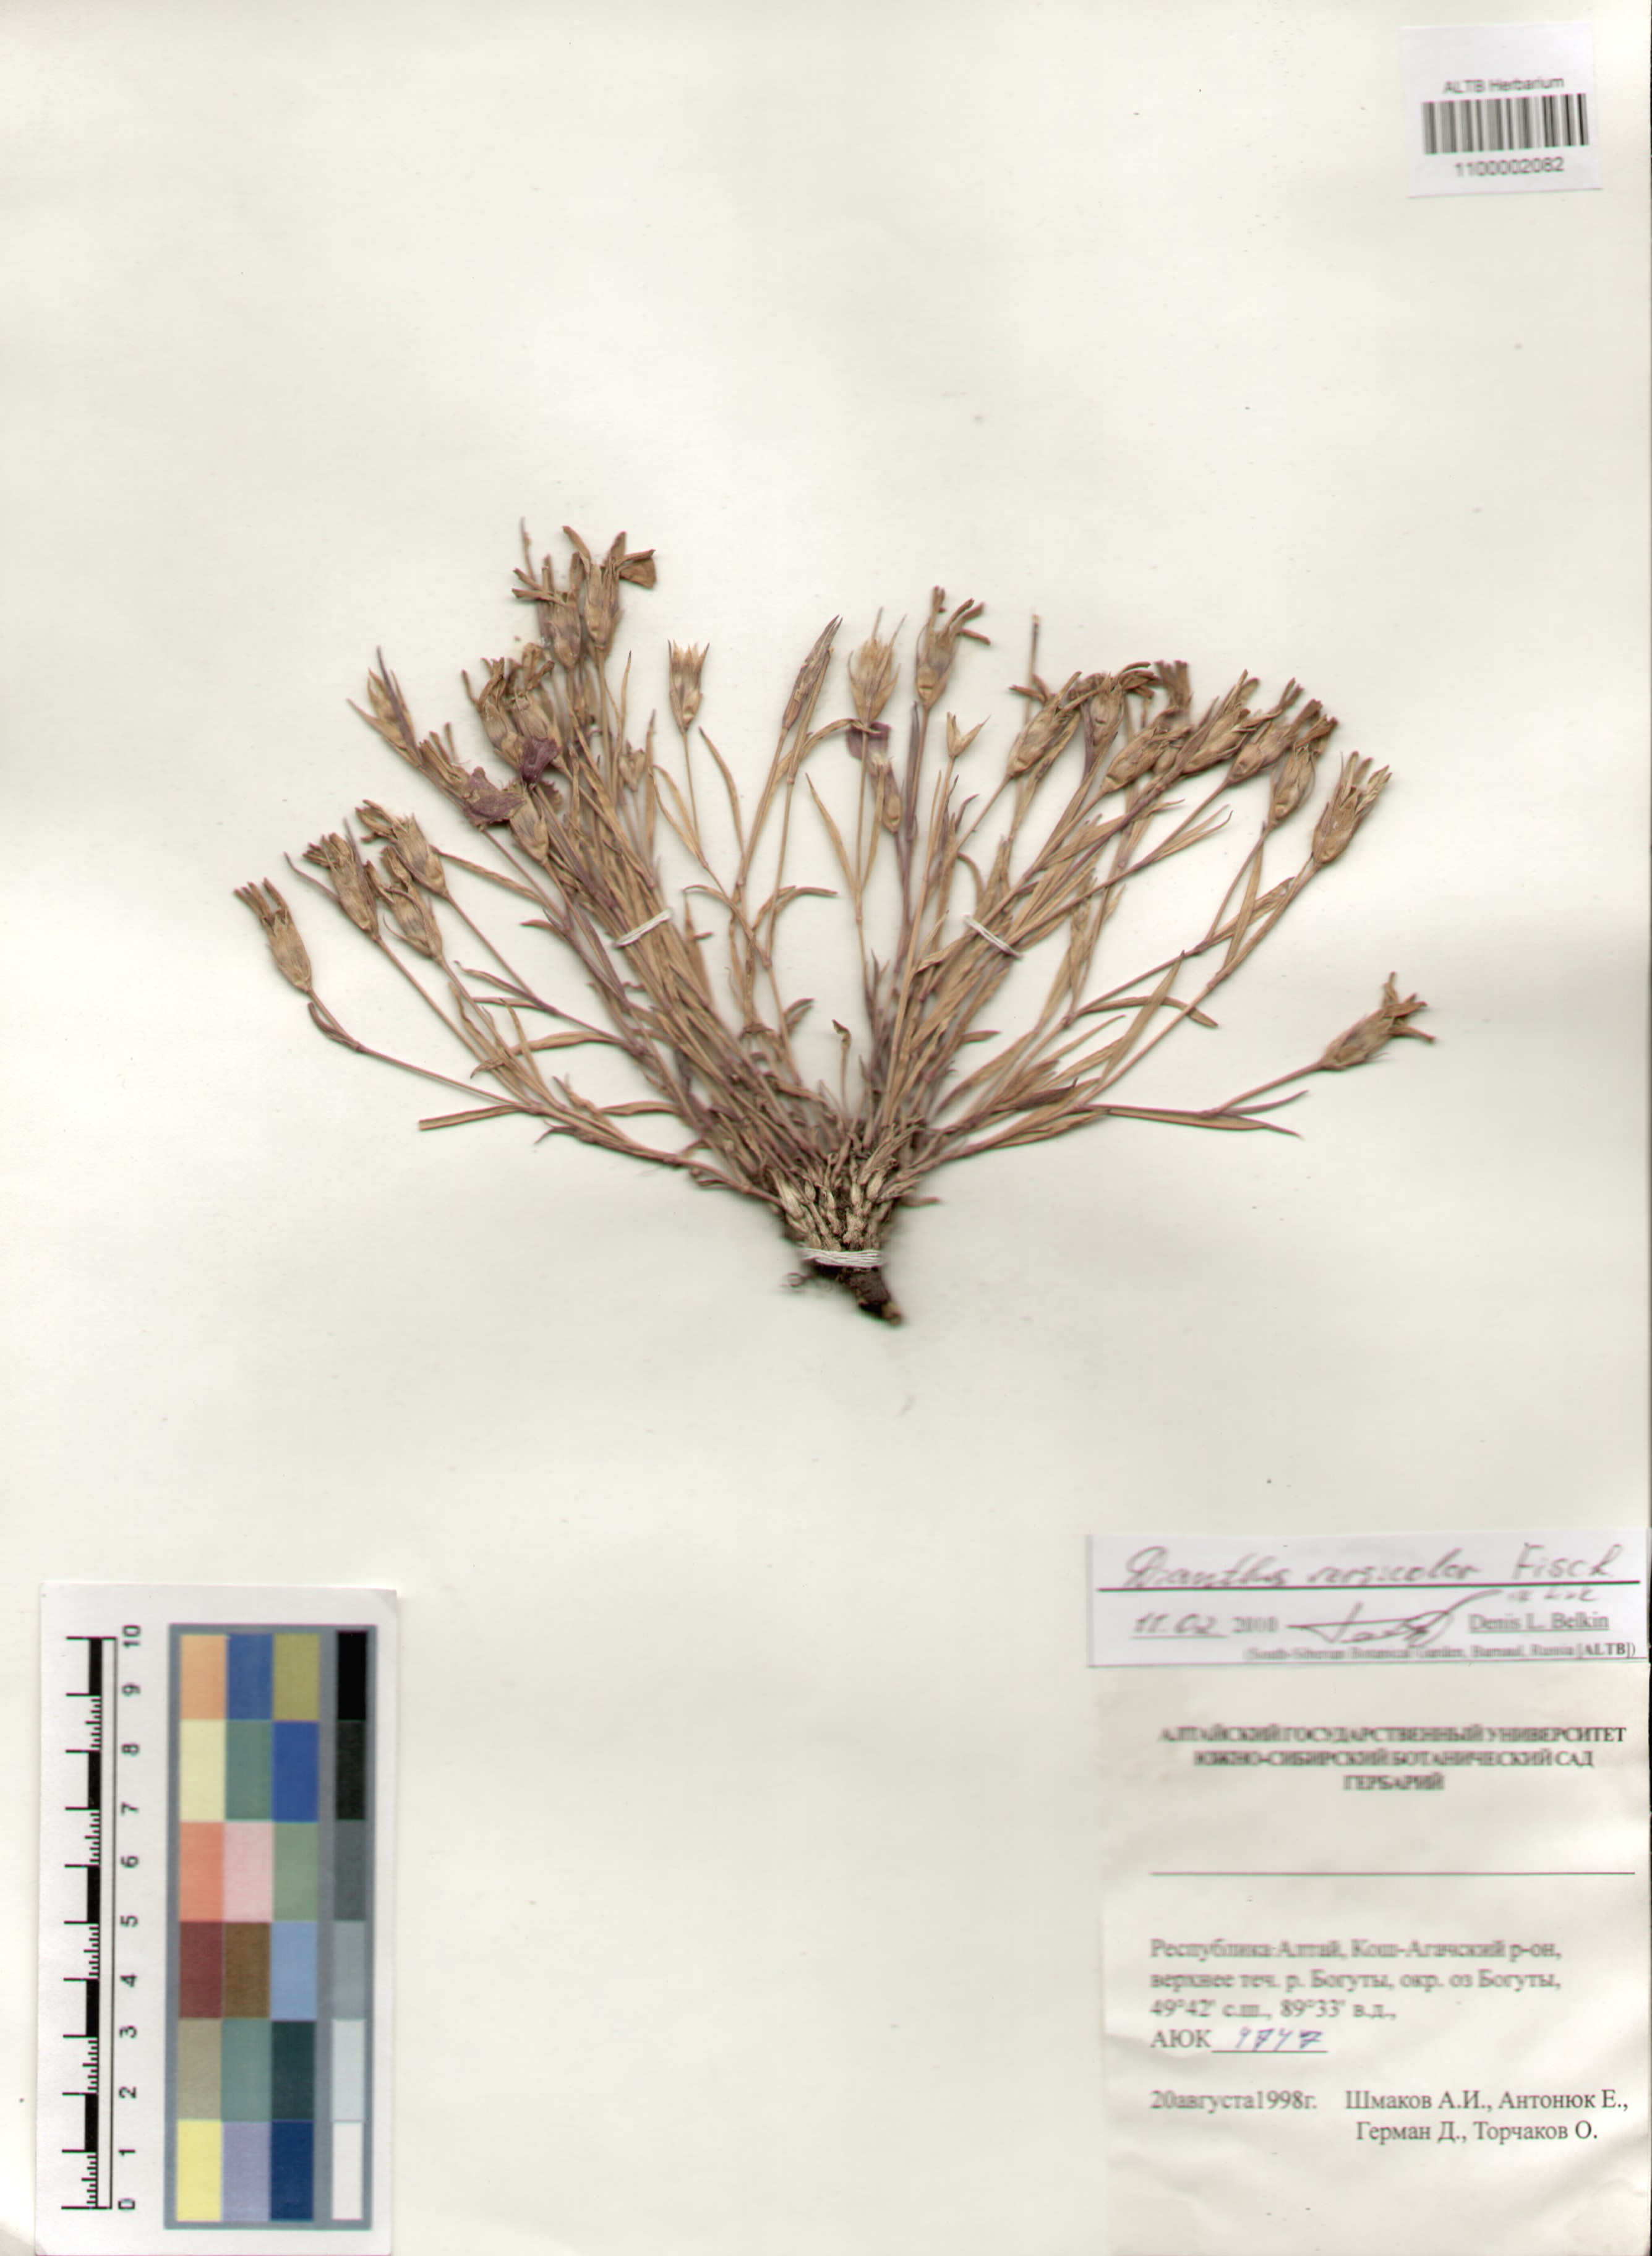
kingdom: Plantae
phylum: Tracheophyta
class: Magnoliopsida
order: Caryophyllales
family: Caryophyllaceae
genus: Dianthus
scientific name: Dianthus chinensis
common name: Rainbow pink
